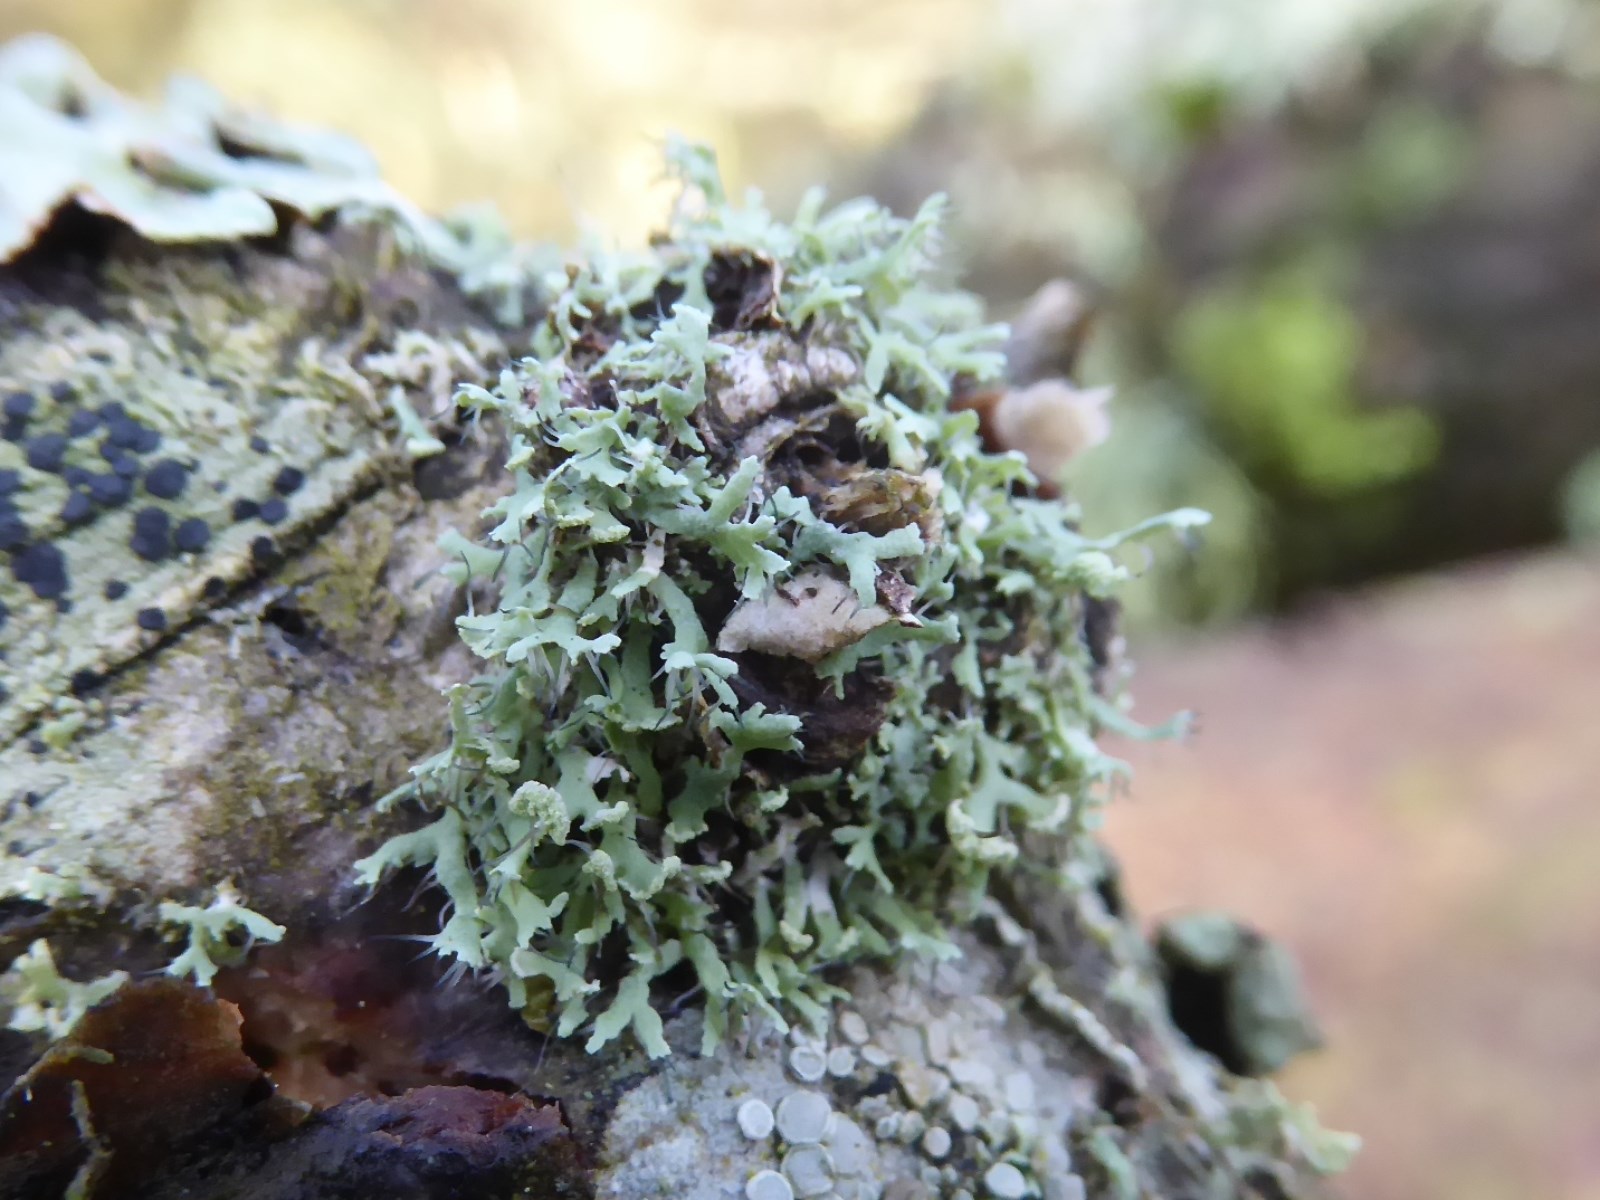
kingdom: Fungi
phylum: Ascomycota
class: Lecanoromycetes
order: Caliciales
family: Physciaceae
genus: Physcia
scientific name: Physcia tenella
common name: spæd rosetlav
